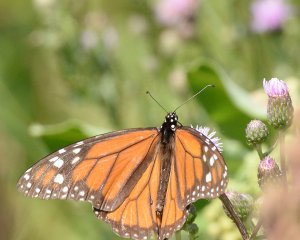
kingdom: Animalia
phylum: Arthropoda
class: Insecta
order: Lepidoptera
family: Nymphalidae
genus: Danaus
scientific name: Danaus plexippus
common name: Monarch
